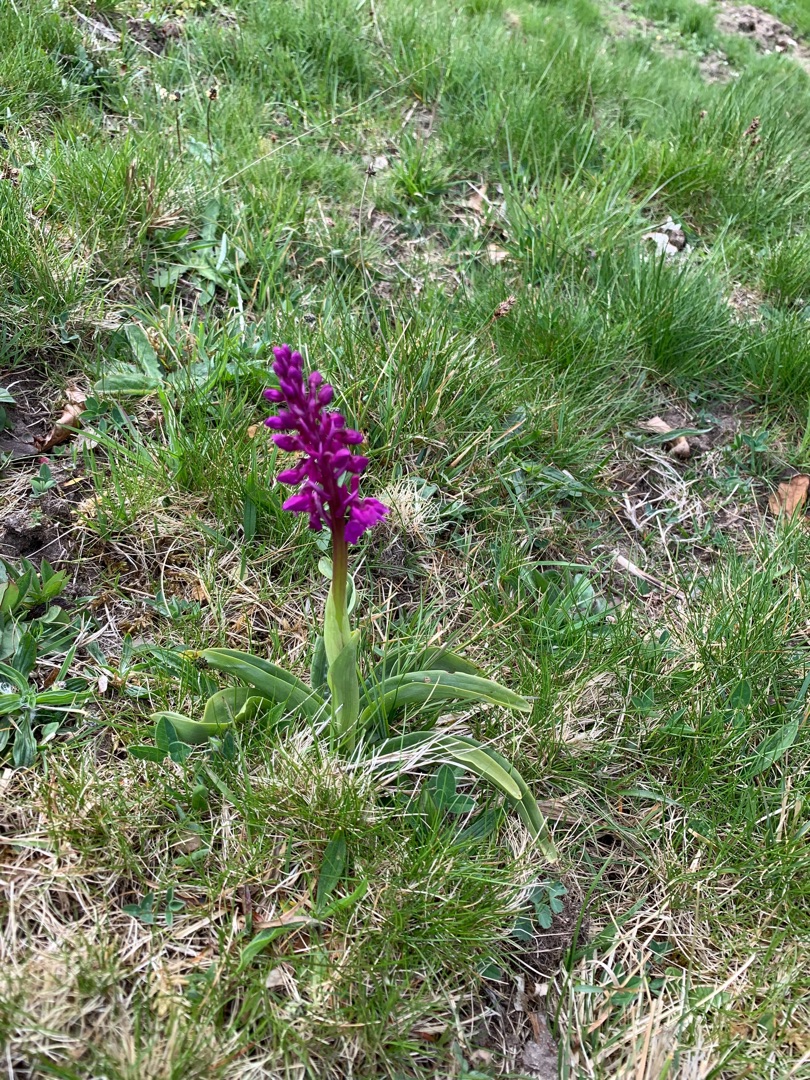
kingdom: Plantae
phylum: Tracheophyta
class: Liliopsida
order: Asparagales
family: Orchidaceae
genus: Orchis
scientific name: Orchis mascula
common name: Tyndakset gøgeurt
